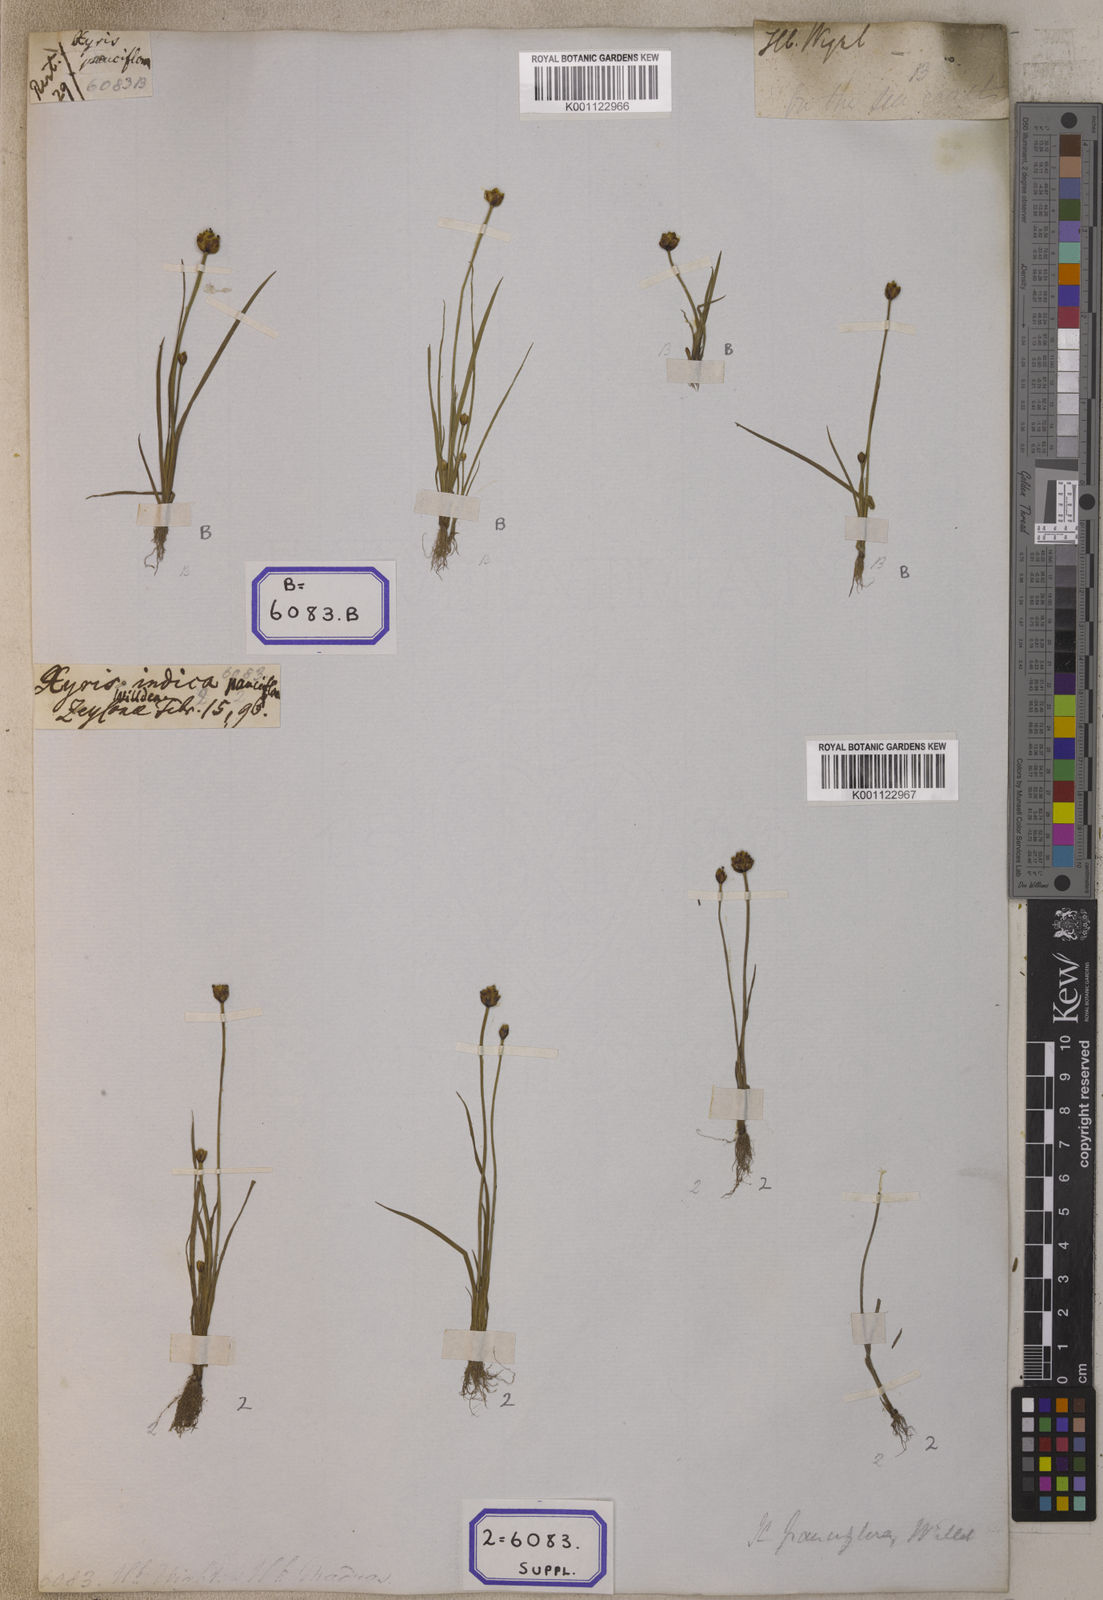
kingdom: Plantae
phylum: Tracheophyta
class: Liliopsida
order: Poales
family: Xyridaceae
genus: Xyris
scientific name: Xyris pauciflora
